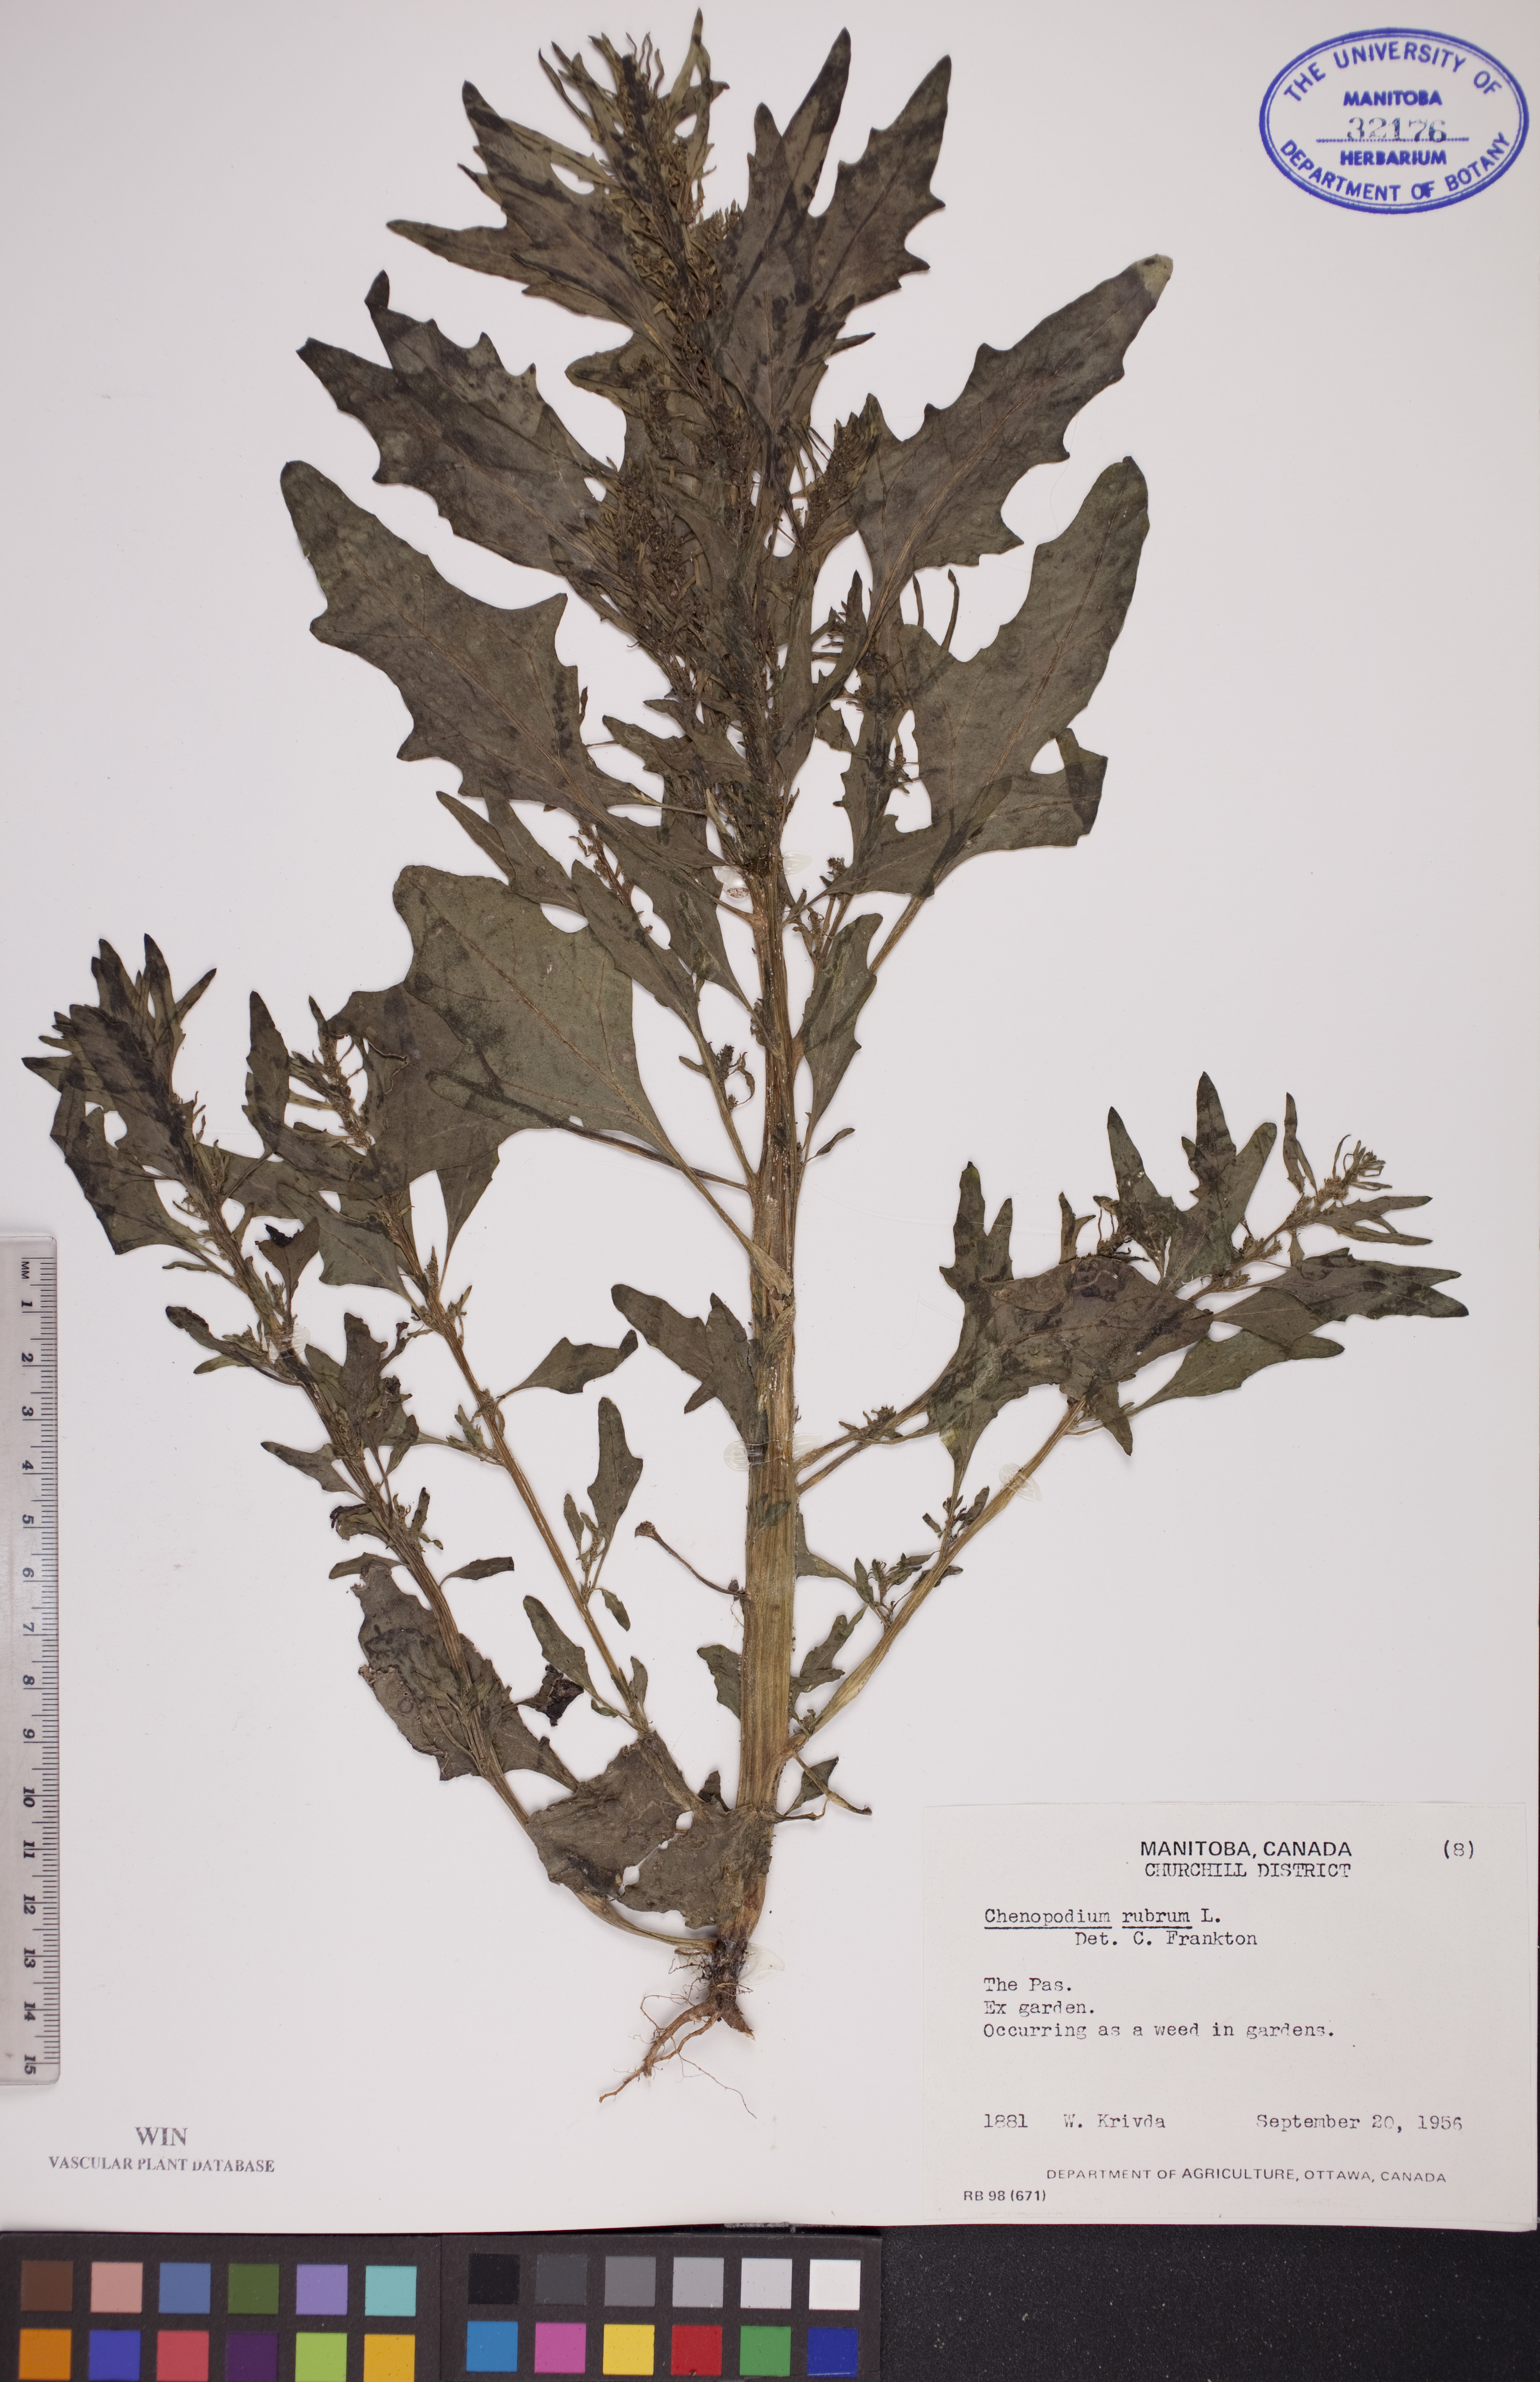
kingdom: Plantae
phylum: Tracheophyta
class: Magnoliopsida
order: Caryophyllales
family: Amaranthaceae
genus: Oxybasis
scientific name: Oxybasis rubra
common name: Red goosefoot
